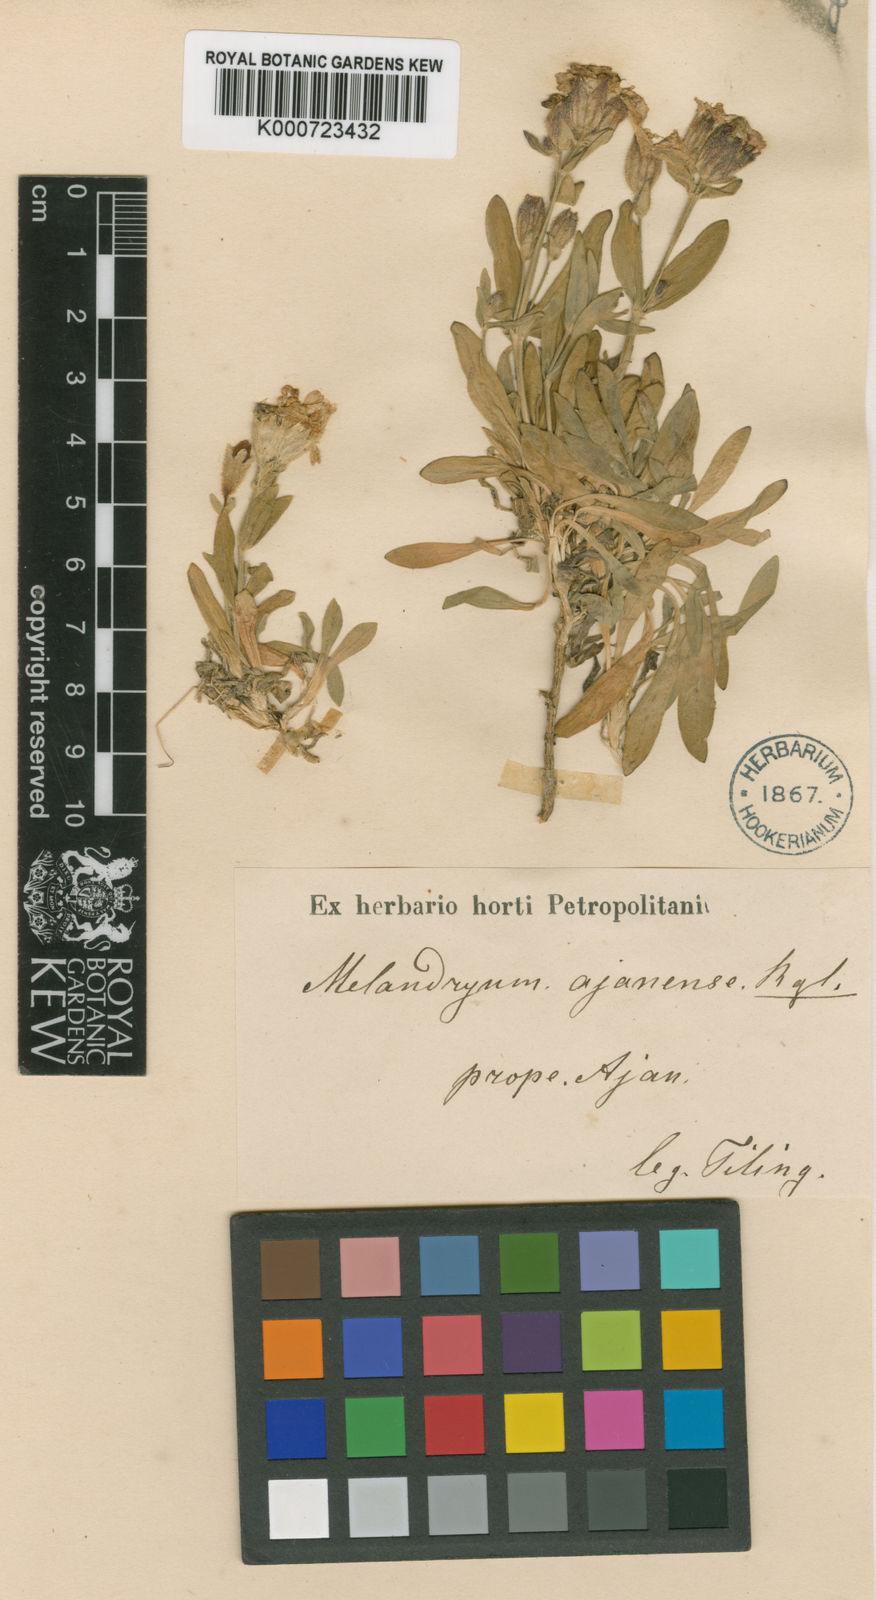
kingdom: Plantae
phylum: Tracheophyta
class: Magnoliopsida
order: Caryophyllales
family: Caryophyllaceae
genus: Silene
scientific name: Silene ajanensis
